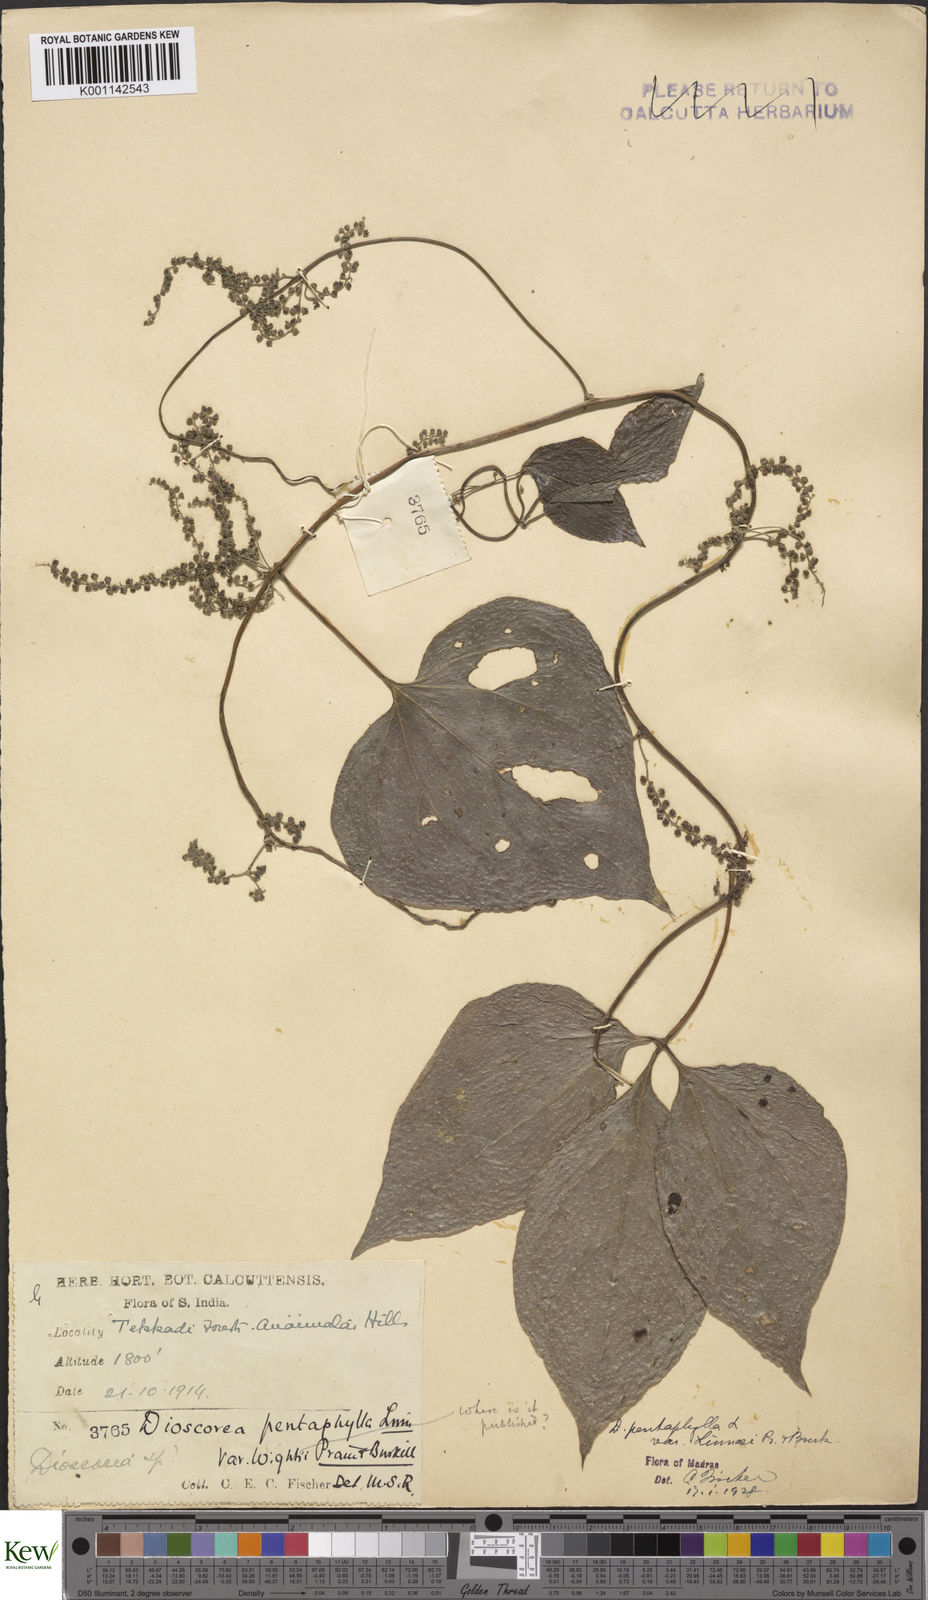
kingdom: Plantae
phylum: Tracheophyta
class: Liliopsida
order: Dioscoreales
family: Dioscoreaceae
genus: Dioscorea
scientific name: Dioscorea pentaphylla
